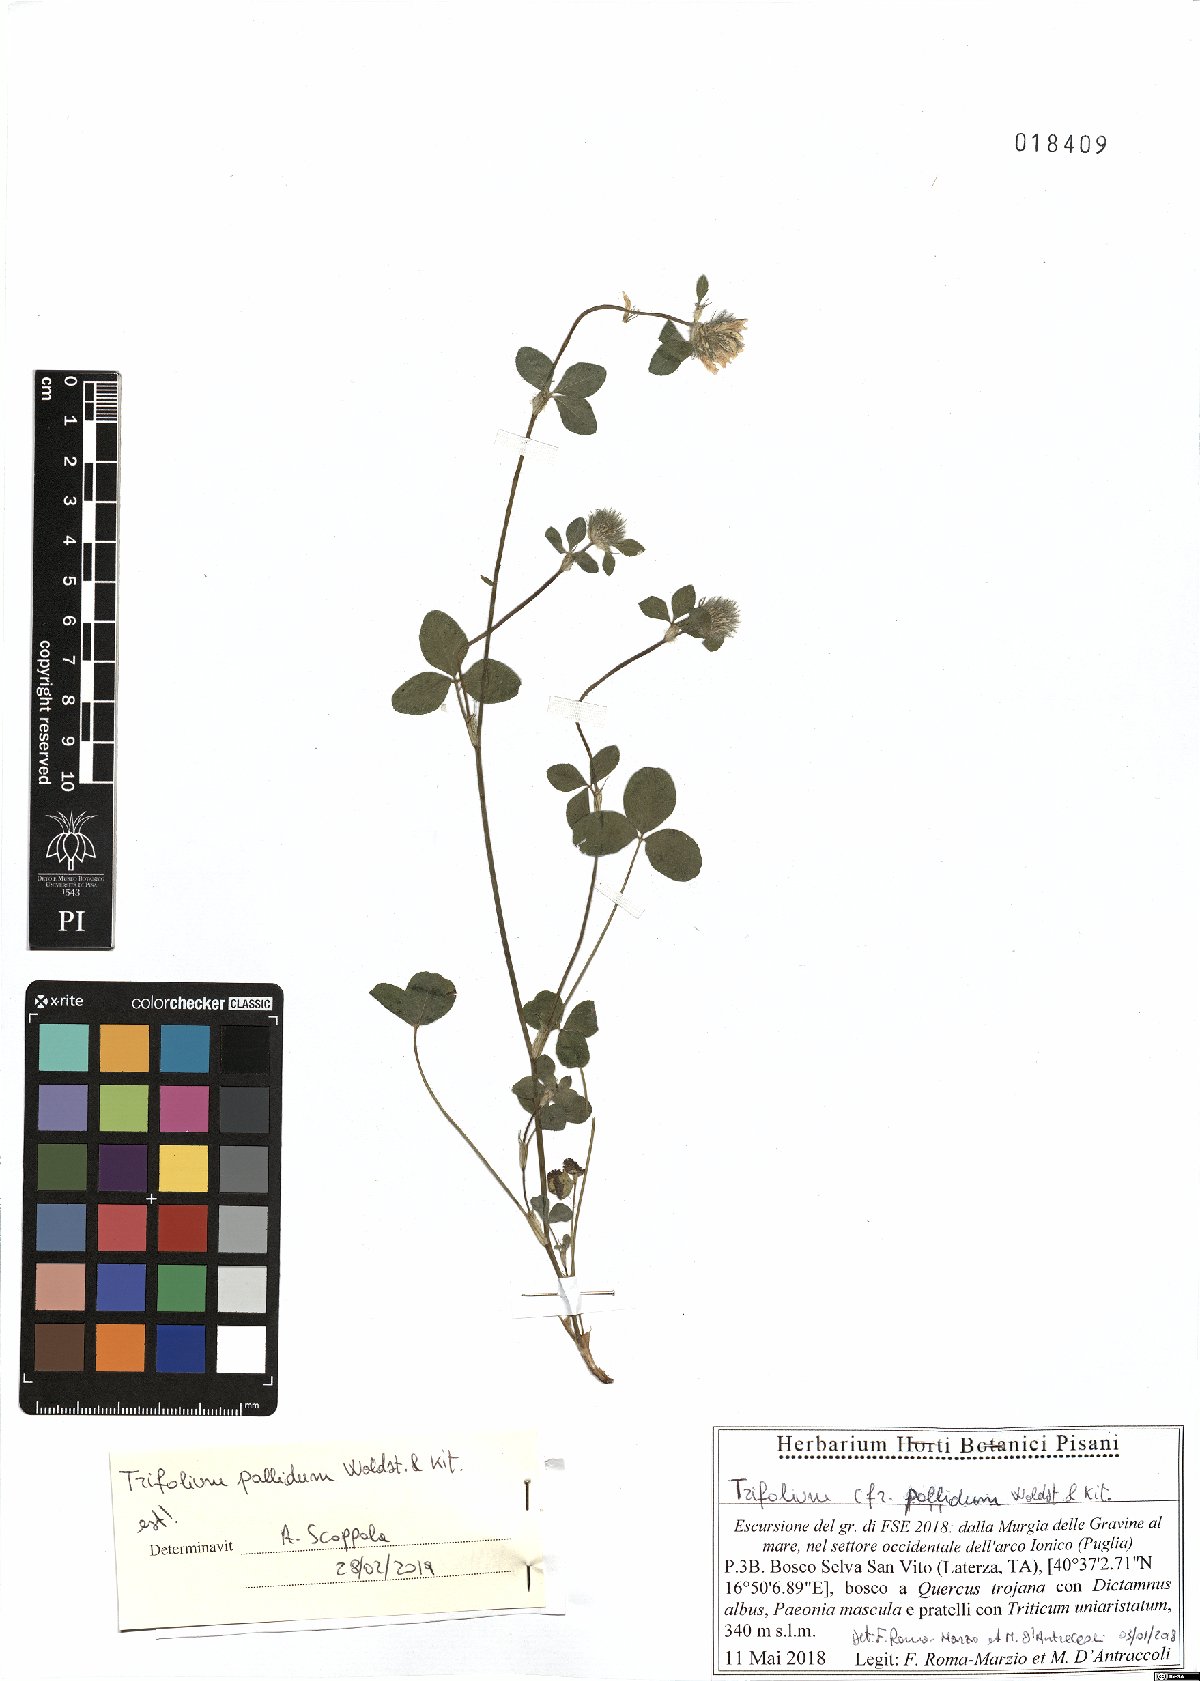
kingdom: Plantae
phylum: Tracheophyta
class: Magnoliopsida
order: Fabales
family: Fabaceae
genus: Trifolium
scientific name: Trifolium pallidum
